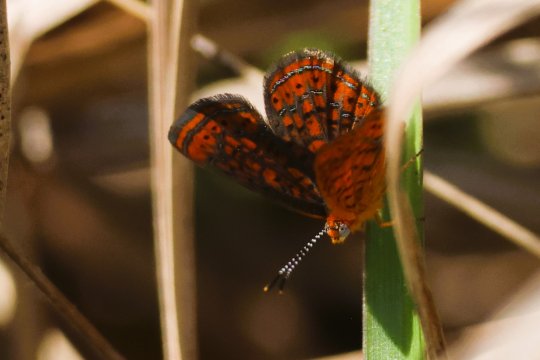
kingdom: Animalia
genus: Calephelis
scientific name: Calephelis virginiensis
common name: Little Metalmark
